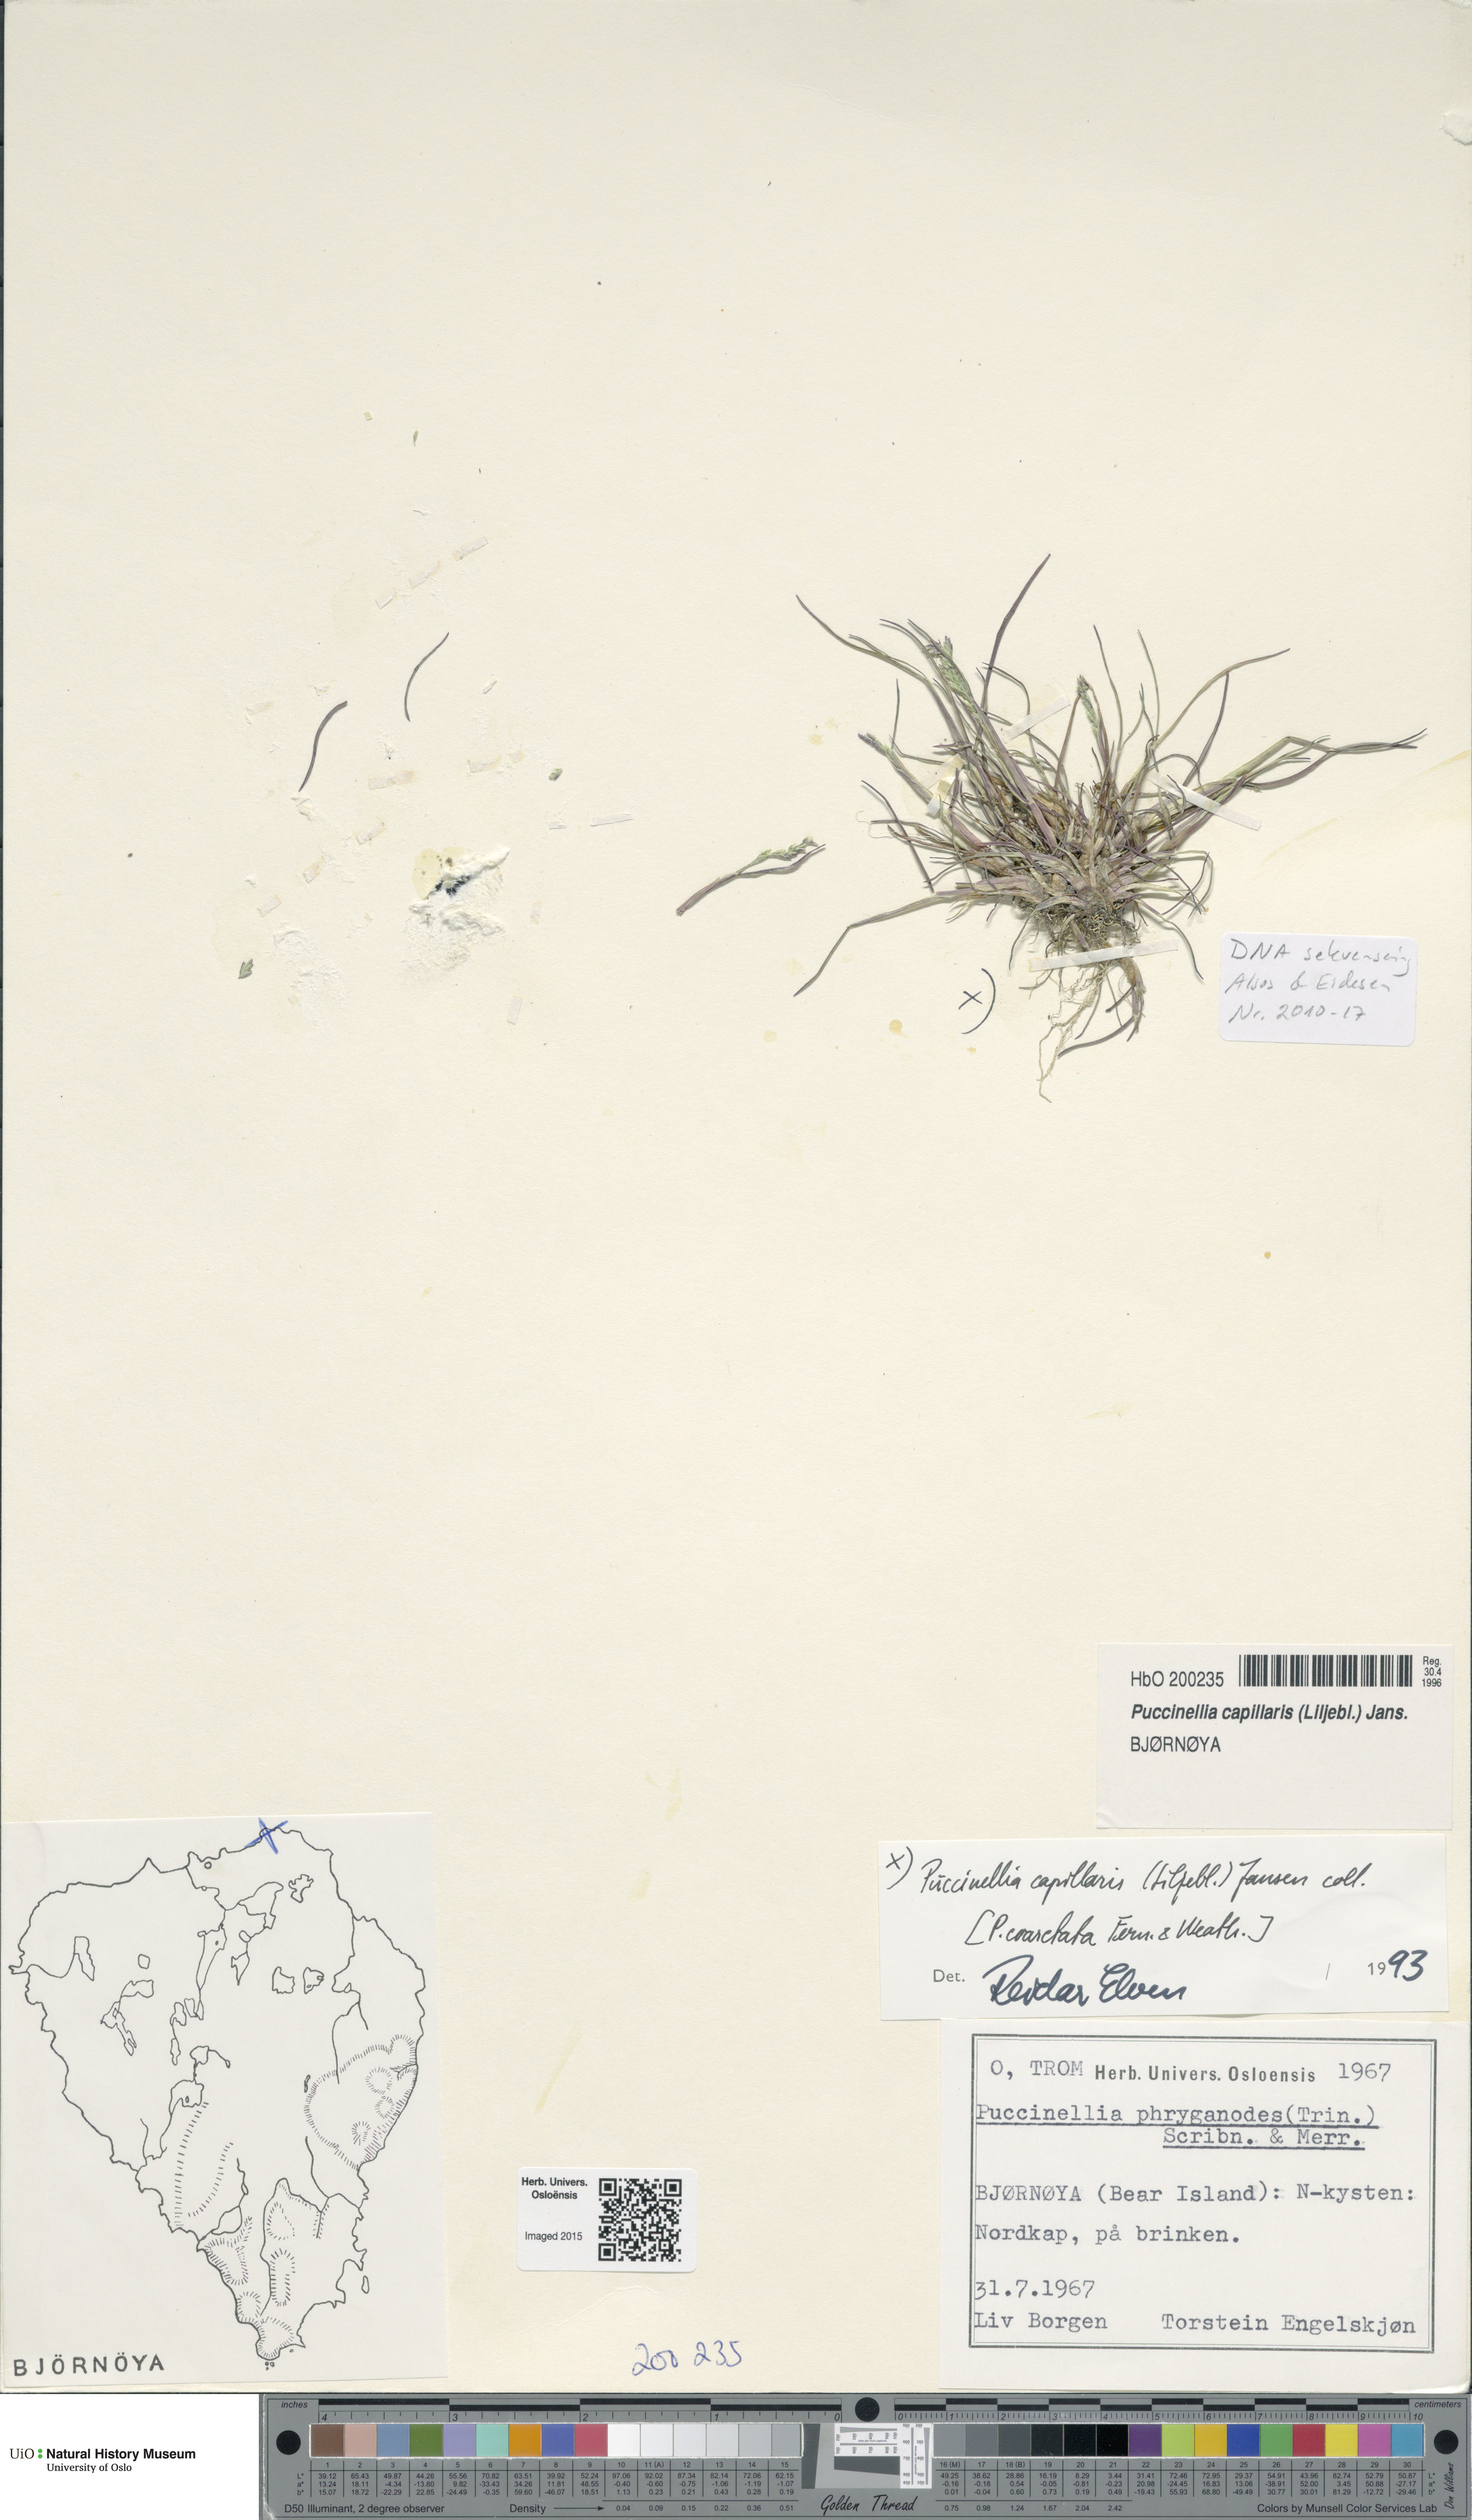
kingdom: Plantae
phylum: Tracheophyta
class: Liliopsida
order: Poales
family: Poaceae
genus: Puccinellia
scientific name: Puccinellia distans
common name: Weeping alkaligrass
